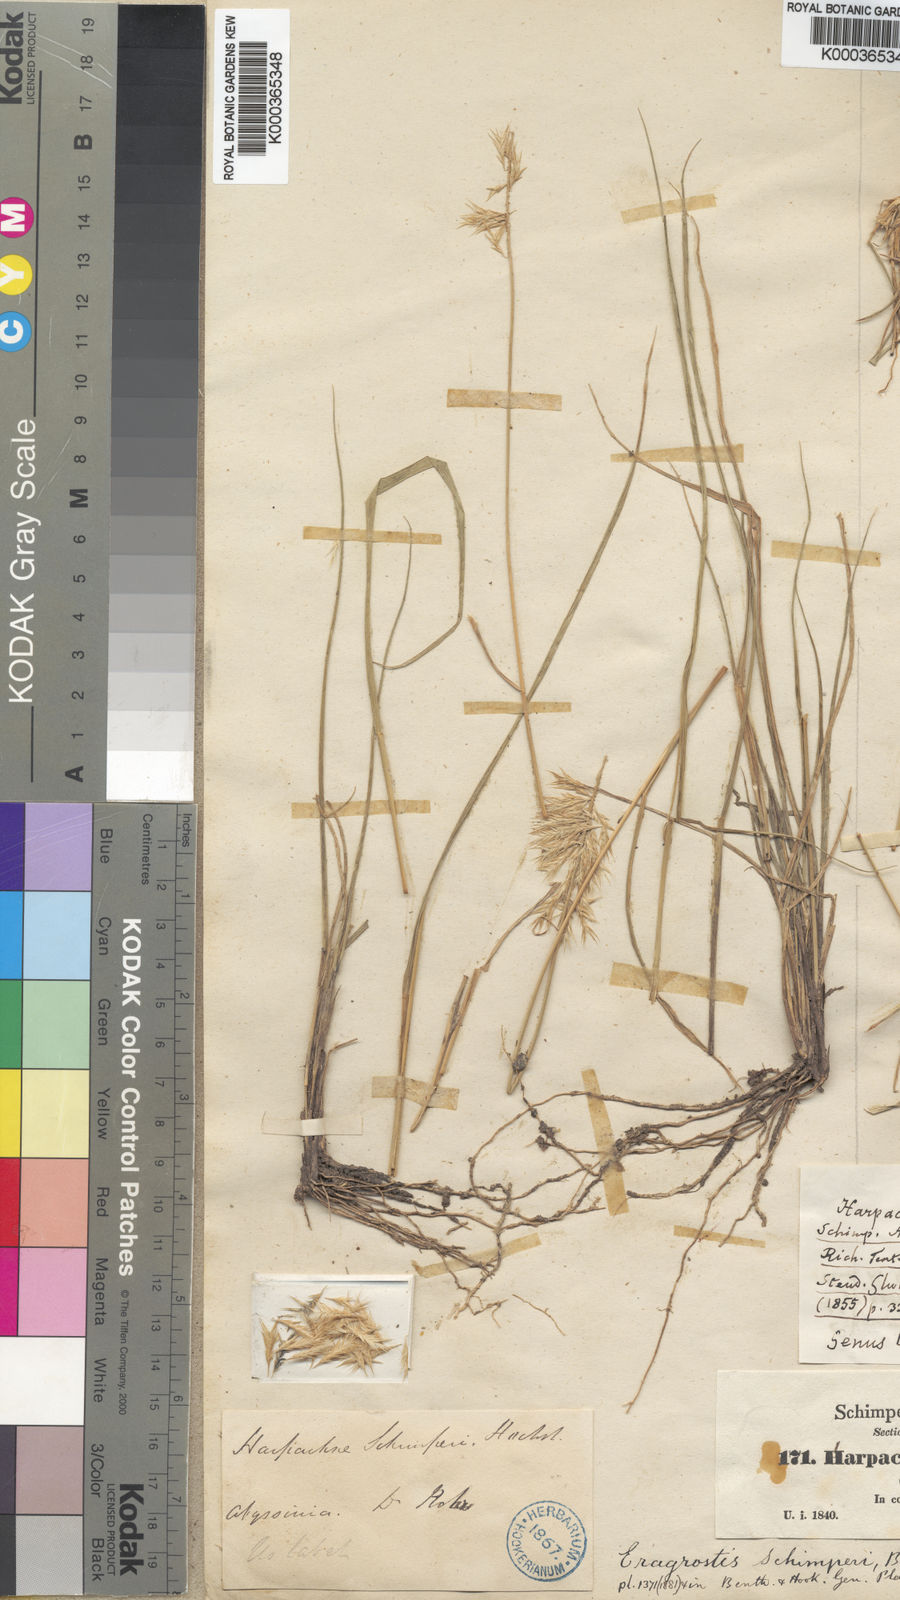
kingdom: Plantae
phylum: Tracheophyta
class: Liliopsida
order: Poales
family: Poaceae
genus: Harpachne
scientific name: Harpachne schimperi
